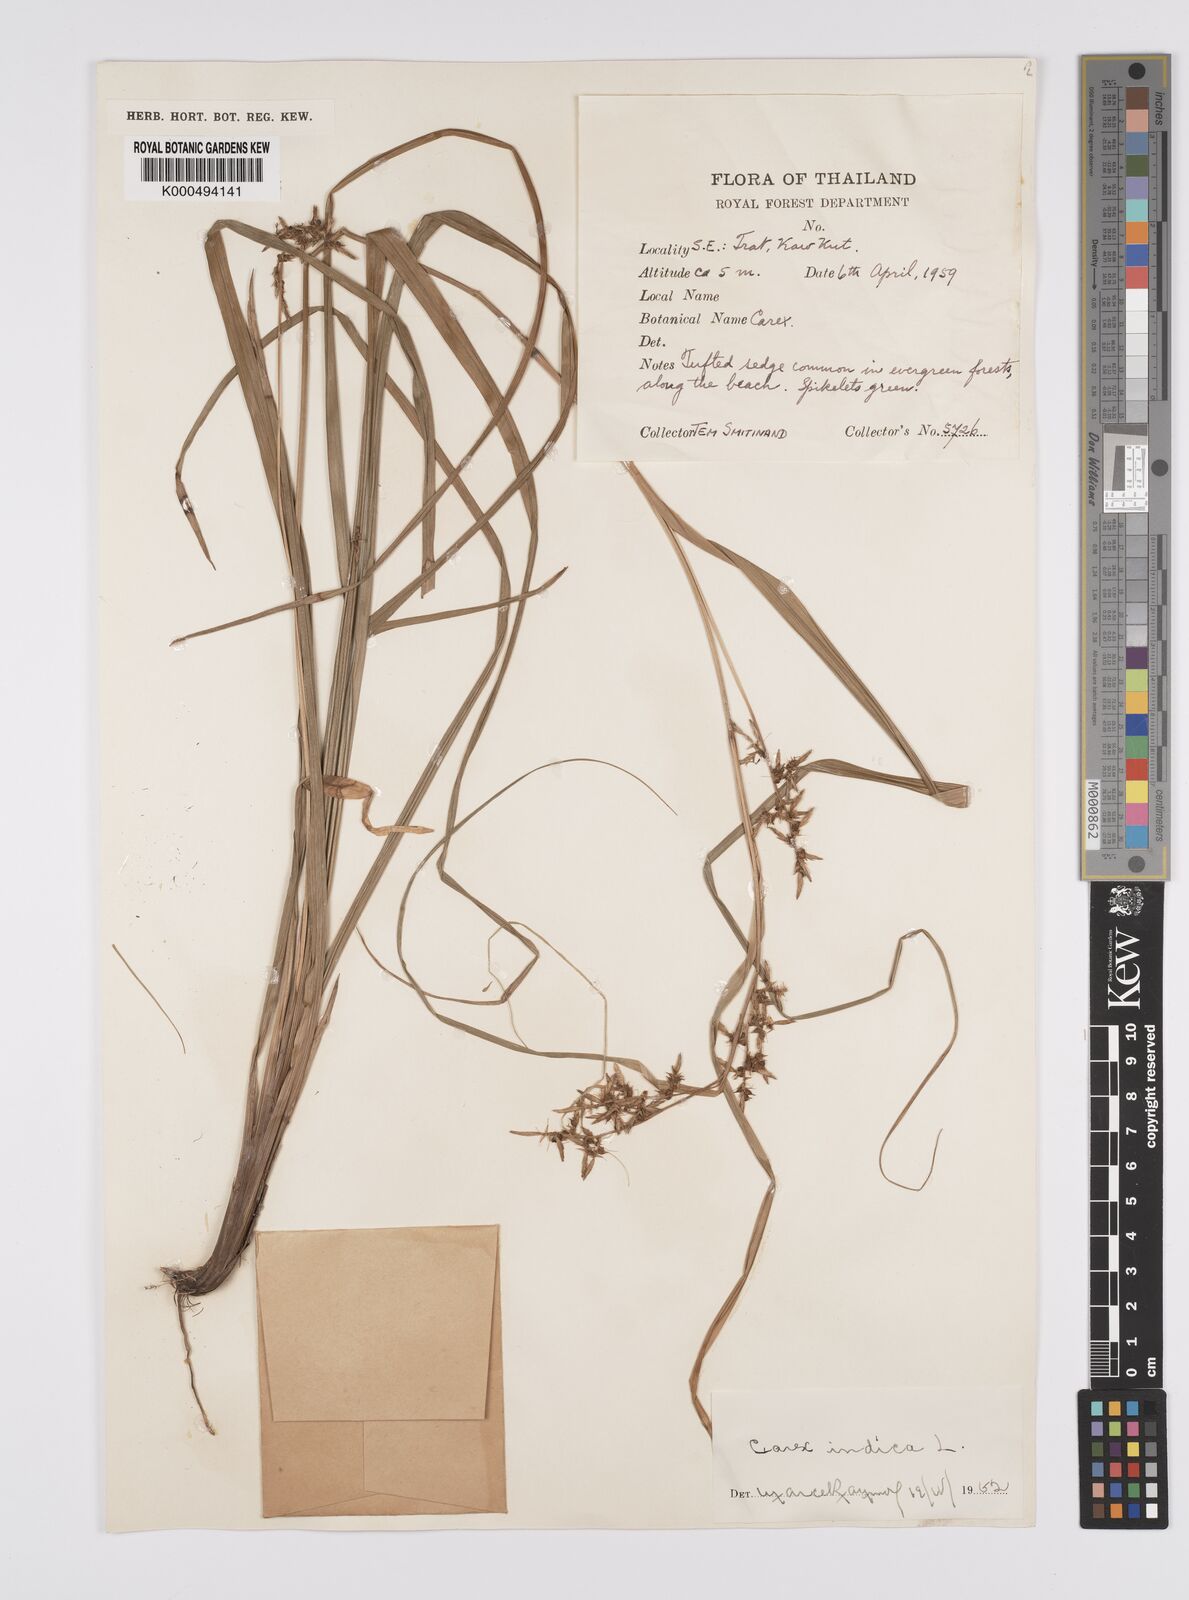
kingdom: Plantae
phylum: Tracheophyta
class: Liliopsida
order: Poales
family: Cyperaceae
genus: Carex
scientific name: Carex indica
